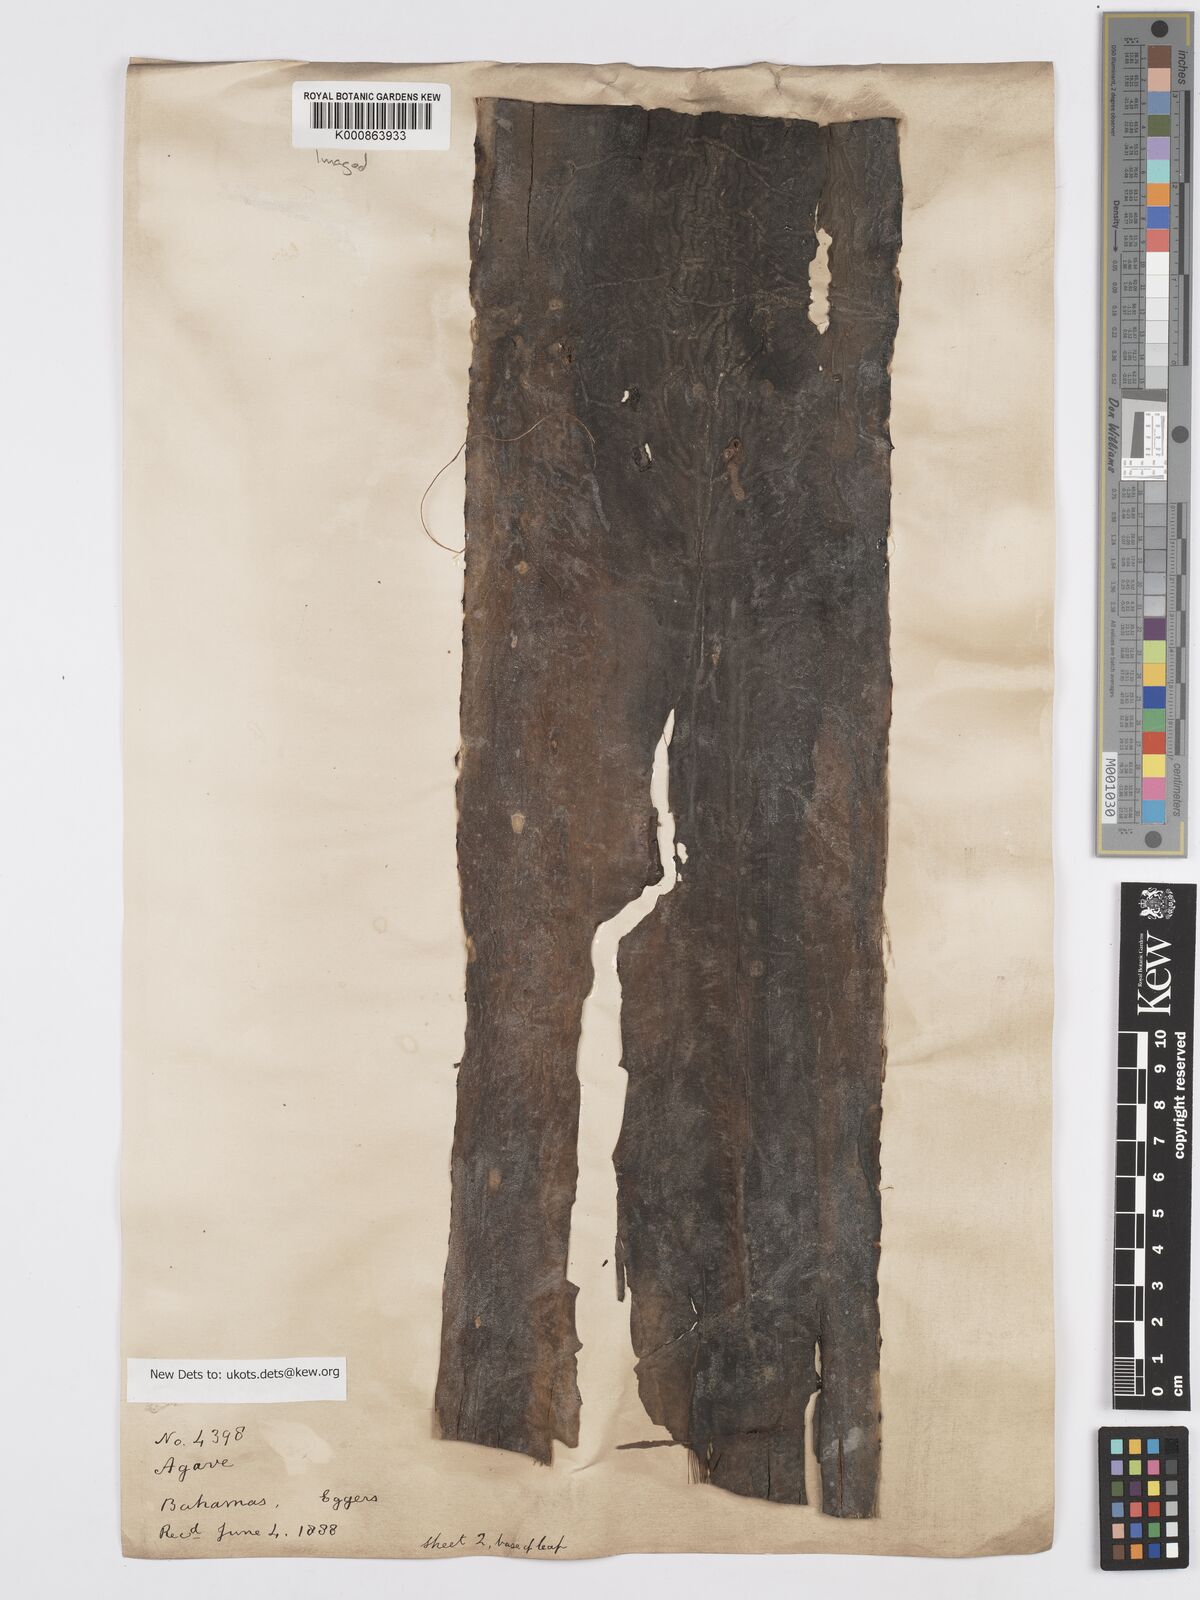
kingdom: Plantae
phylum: Tracheophyta
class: Liliopsida
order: Asparagales
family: Asparagaceae
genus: Agave
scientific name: Agave bahamana
